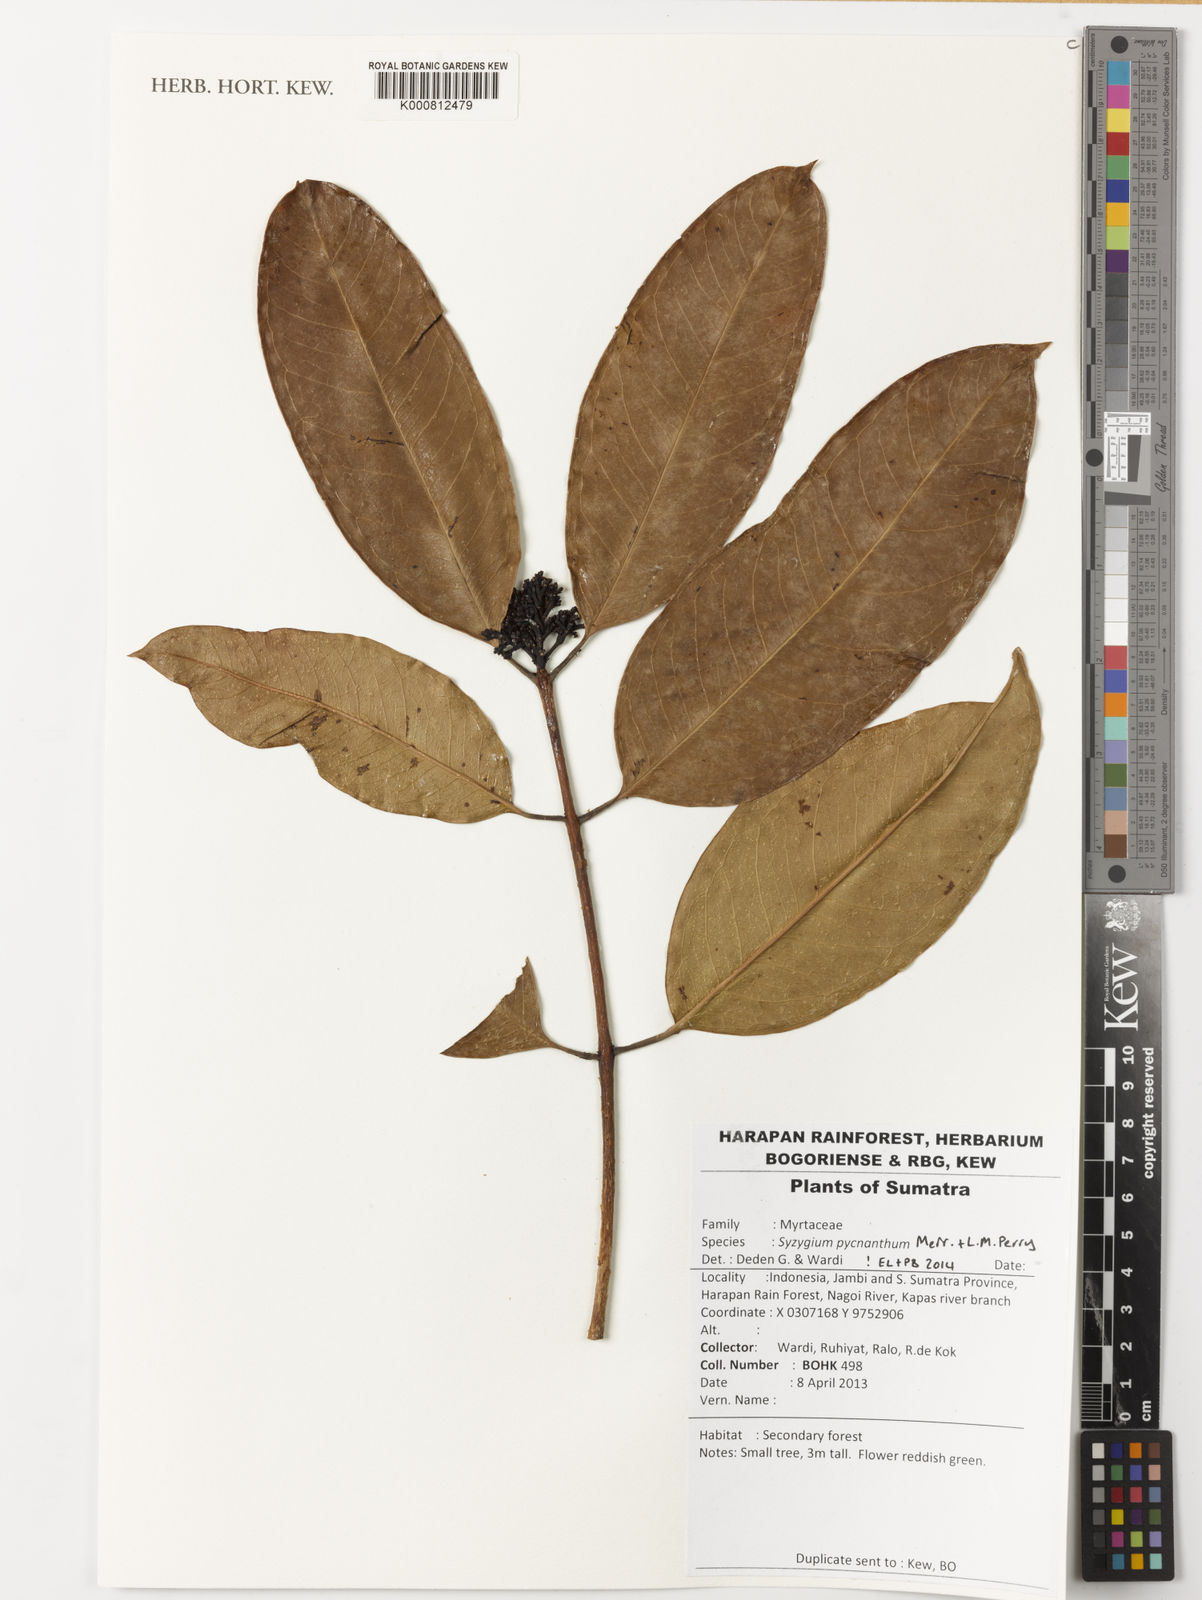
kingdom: Plantae
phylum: Tracheophyta
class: Magnoliopsida
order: Myrtales
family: Myrtaceae
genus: Syzygium
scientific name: Syzygium pycnanthum
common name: Wild rose
